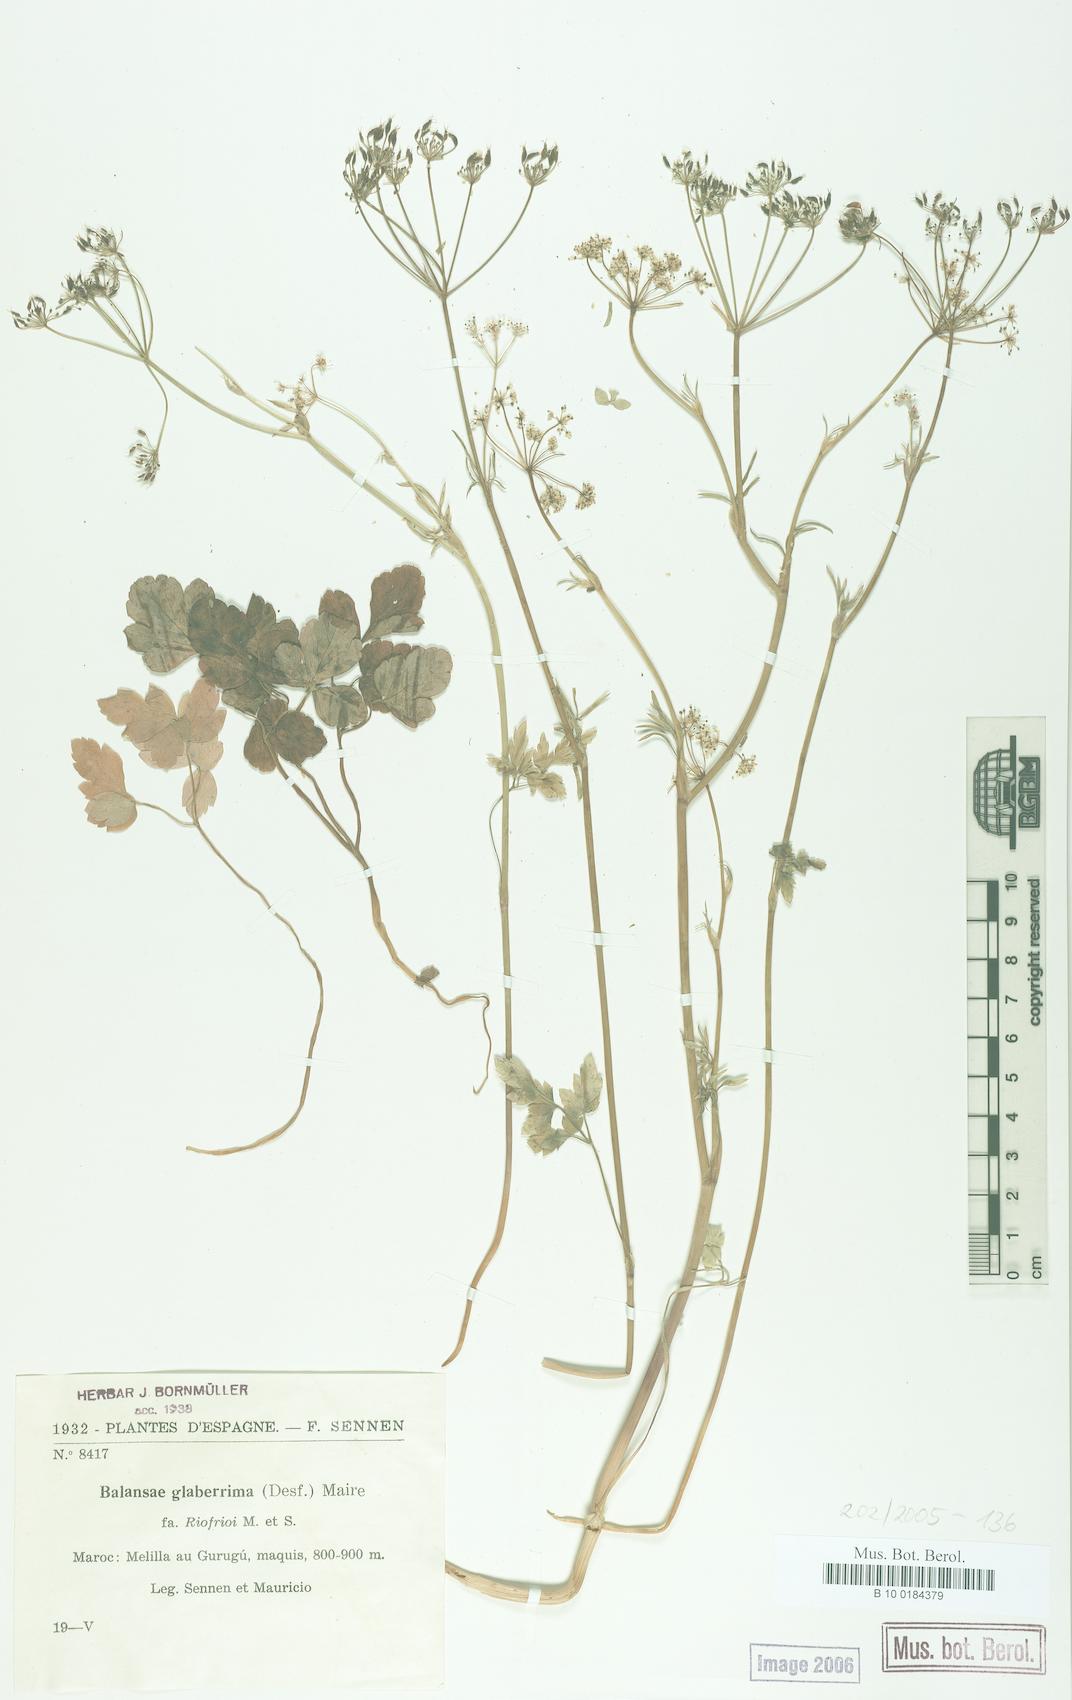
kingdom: Plantae
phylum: Tracheophyta
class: Magnoliopsida
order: Apiales
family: Apiaceae
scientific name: Apiaceae
